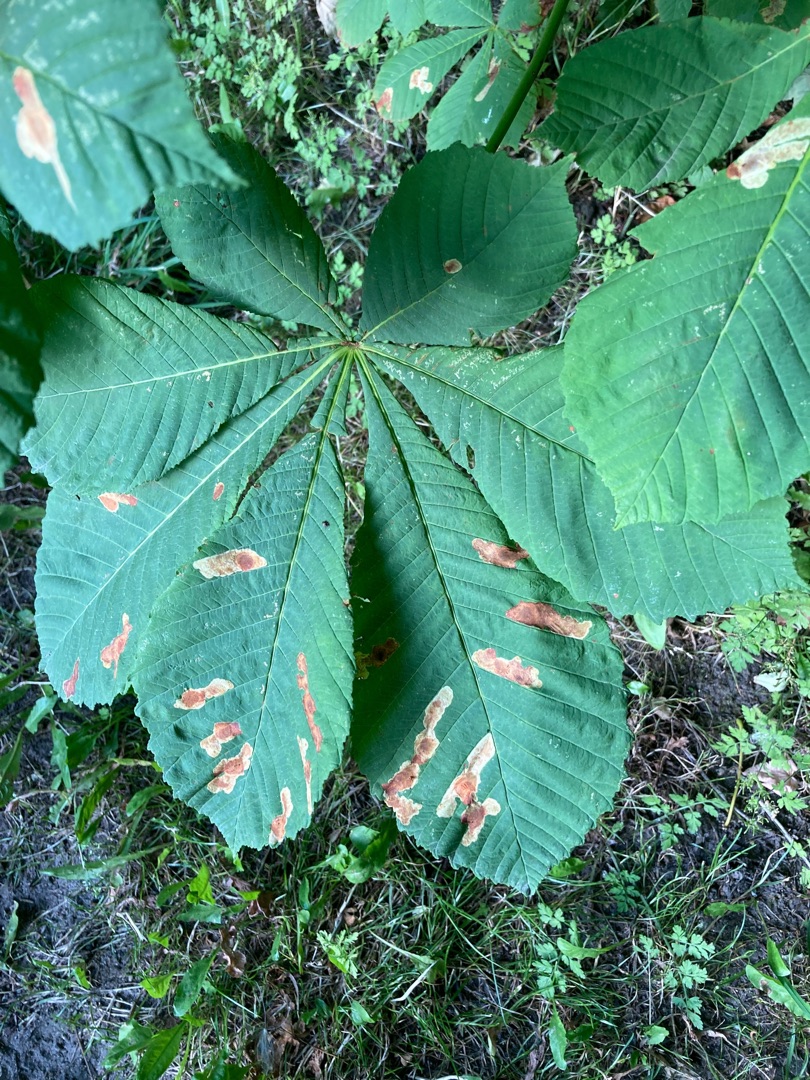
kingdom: Animalia
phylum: Arthropoda
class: Insecta
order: Lepidoptera
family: Gracillariidae
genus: Cameraria
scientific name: Cameraria ohridella
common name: Kastanieminérmøl
